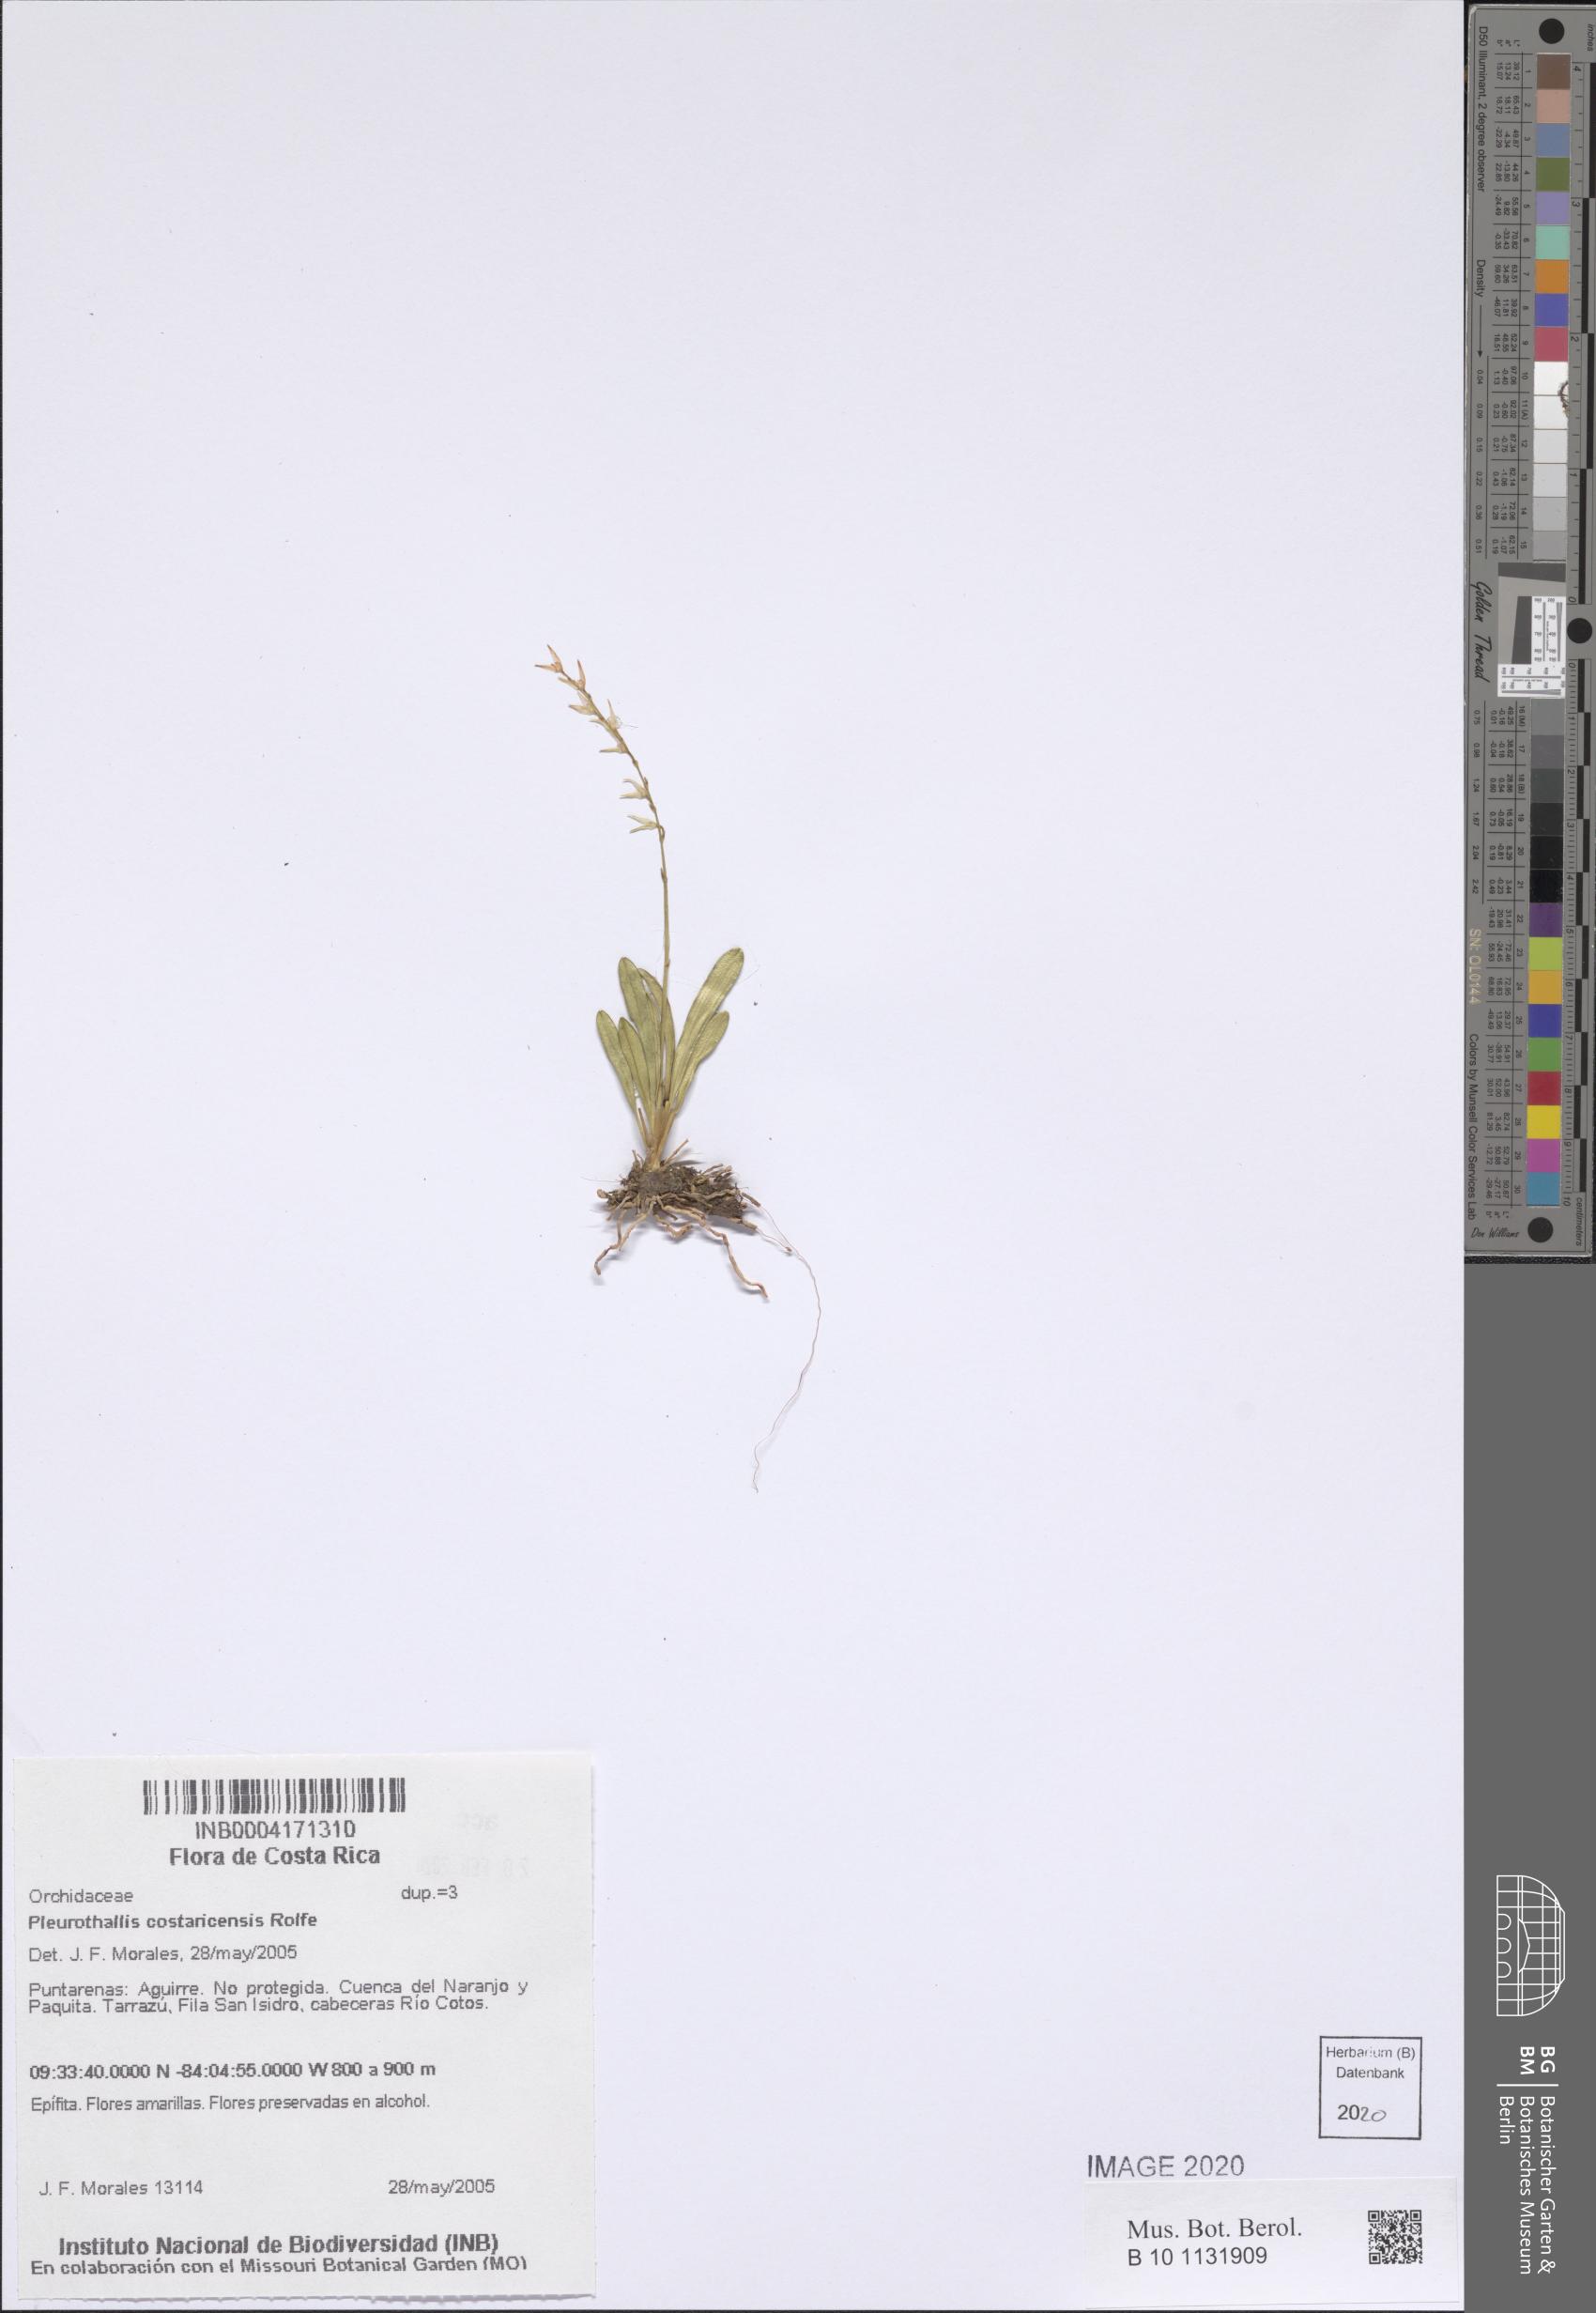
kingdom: Plantae
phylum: Tracheophyta
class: Liliopsida
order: Asparagales
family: Orchidaceae
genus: Specklinia
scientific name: Specklinia costaricensis
